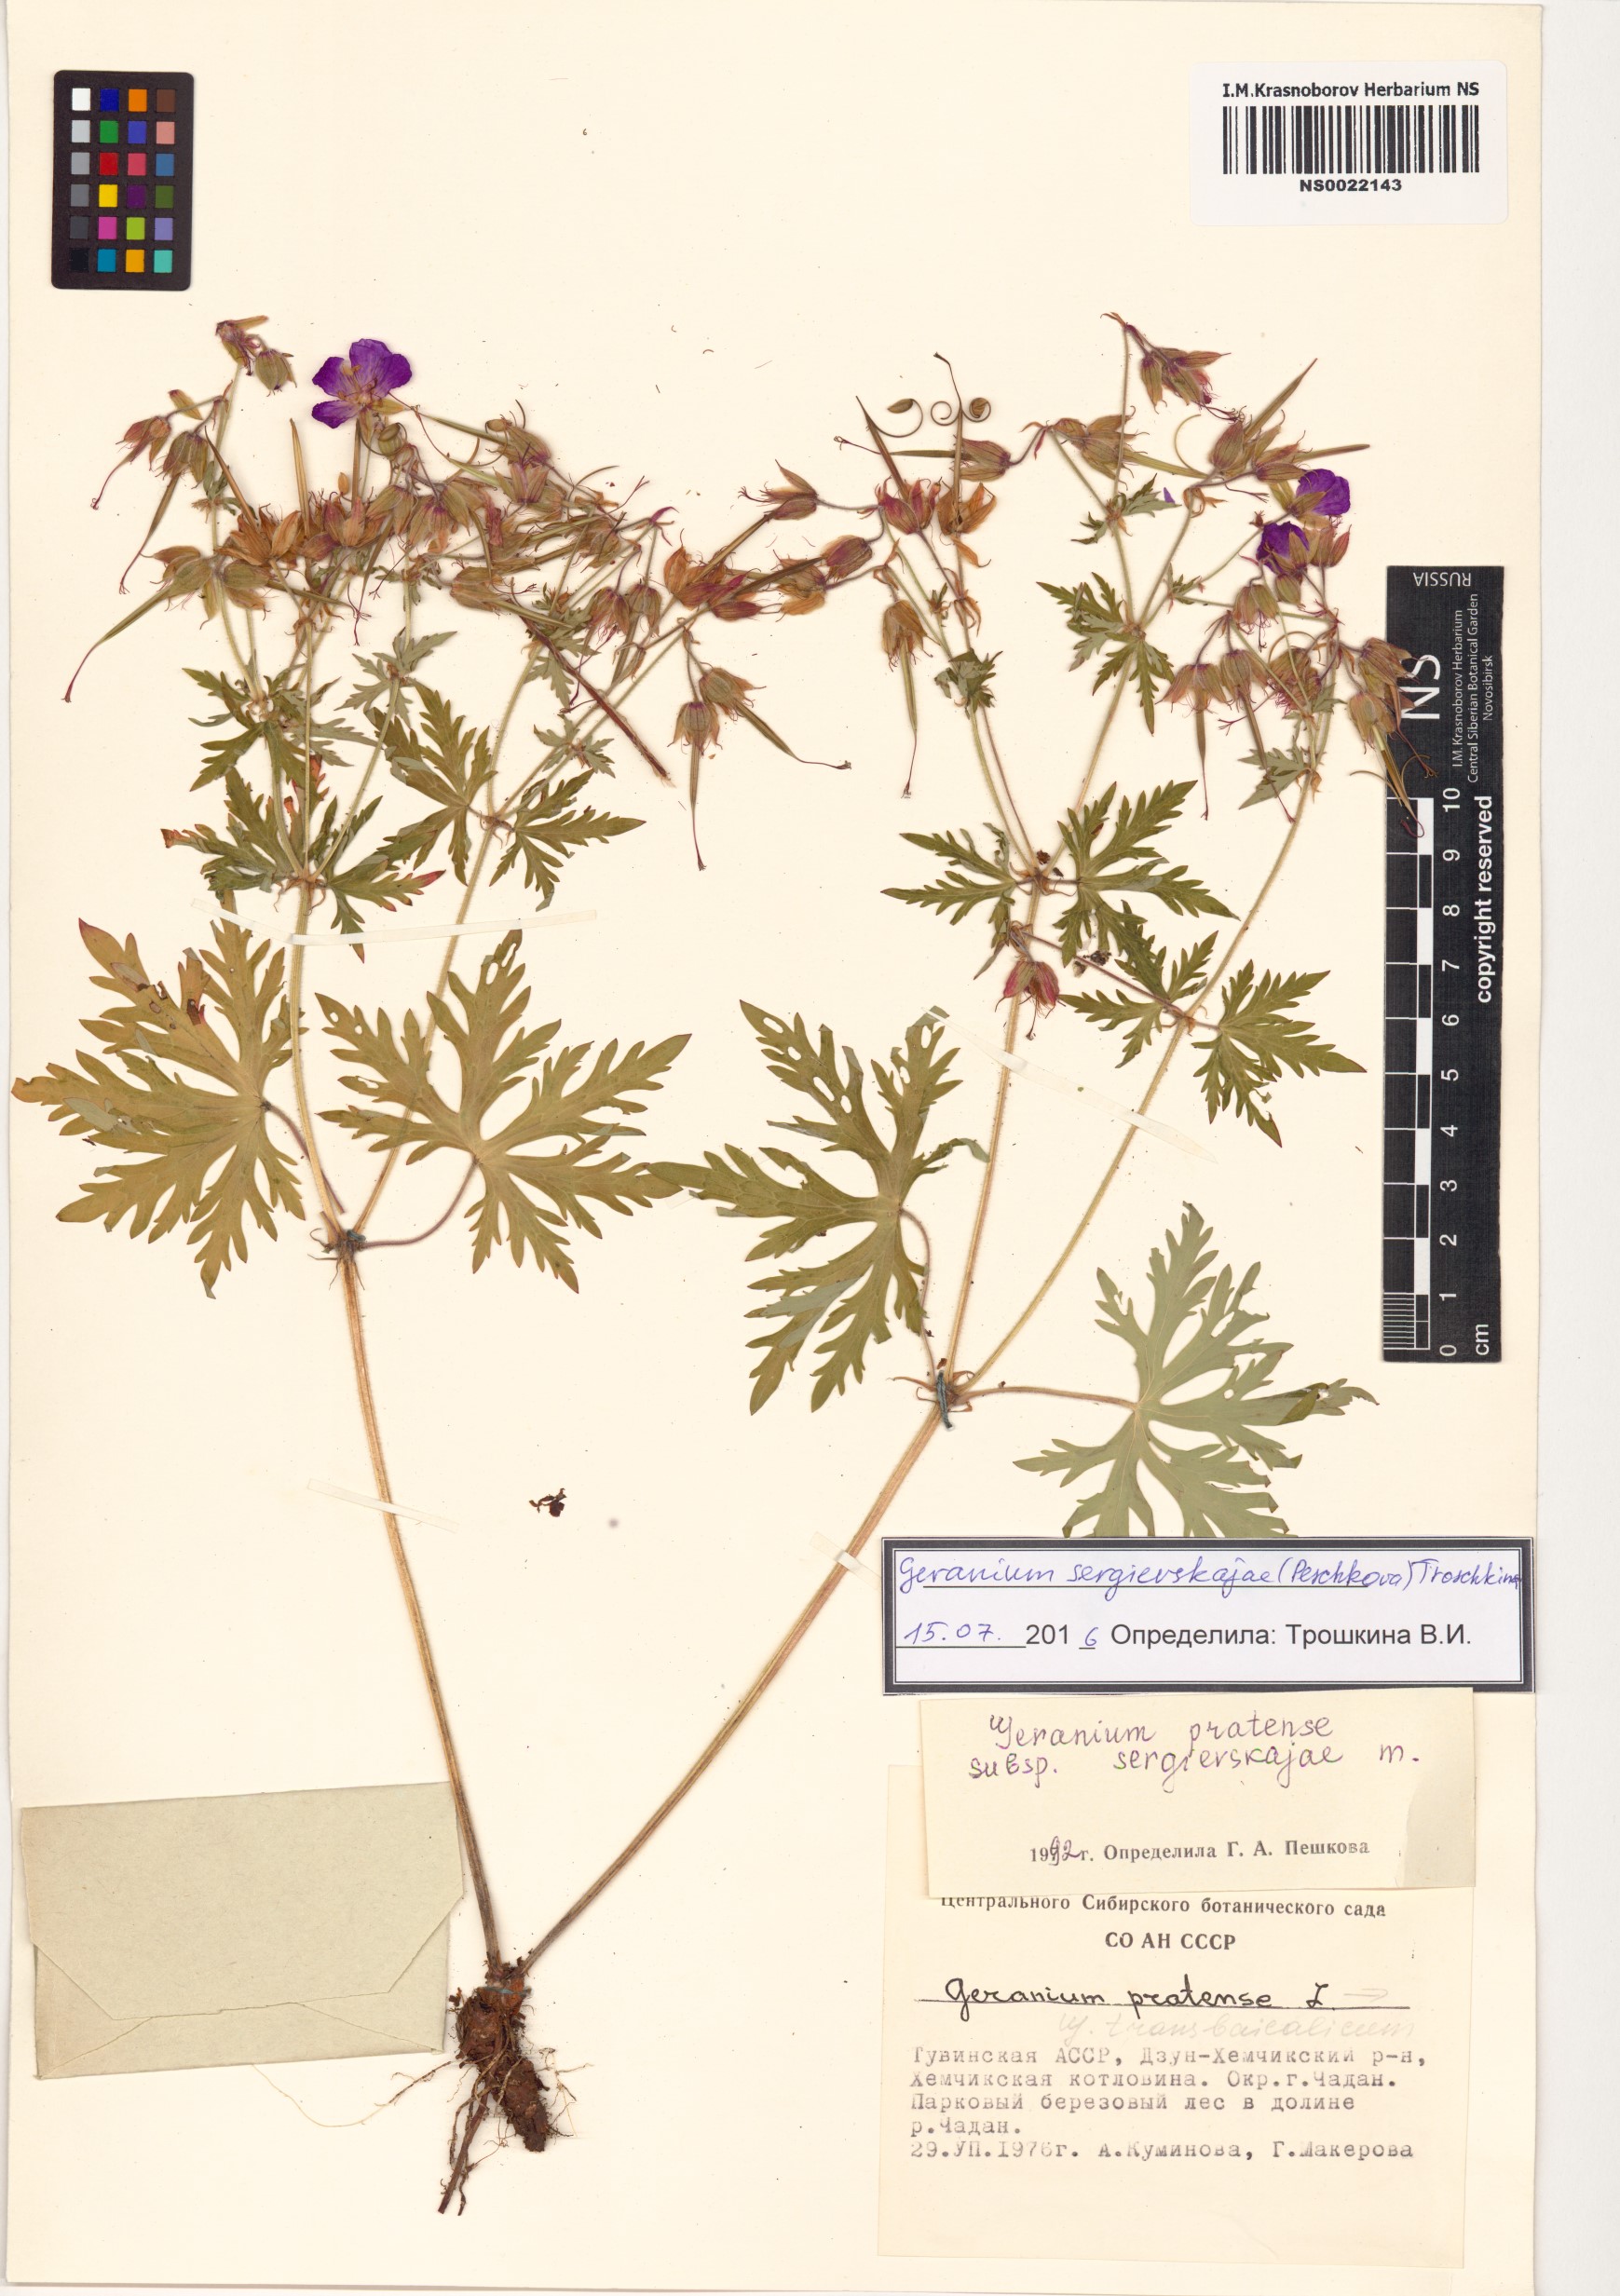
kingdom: Plantae
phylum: Tracheophyta
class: Magnoliopsida
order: Geraniales
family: Geraniaceae
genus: Geranium
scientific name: Geranium pratense
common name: Meadow crane's-bill
